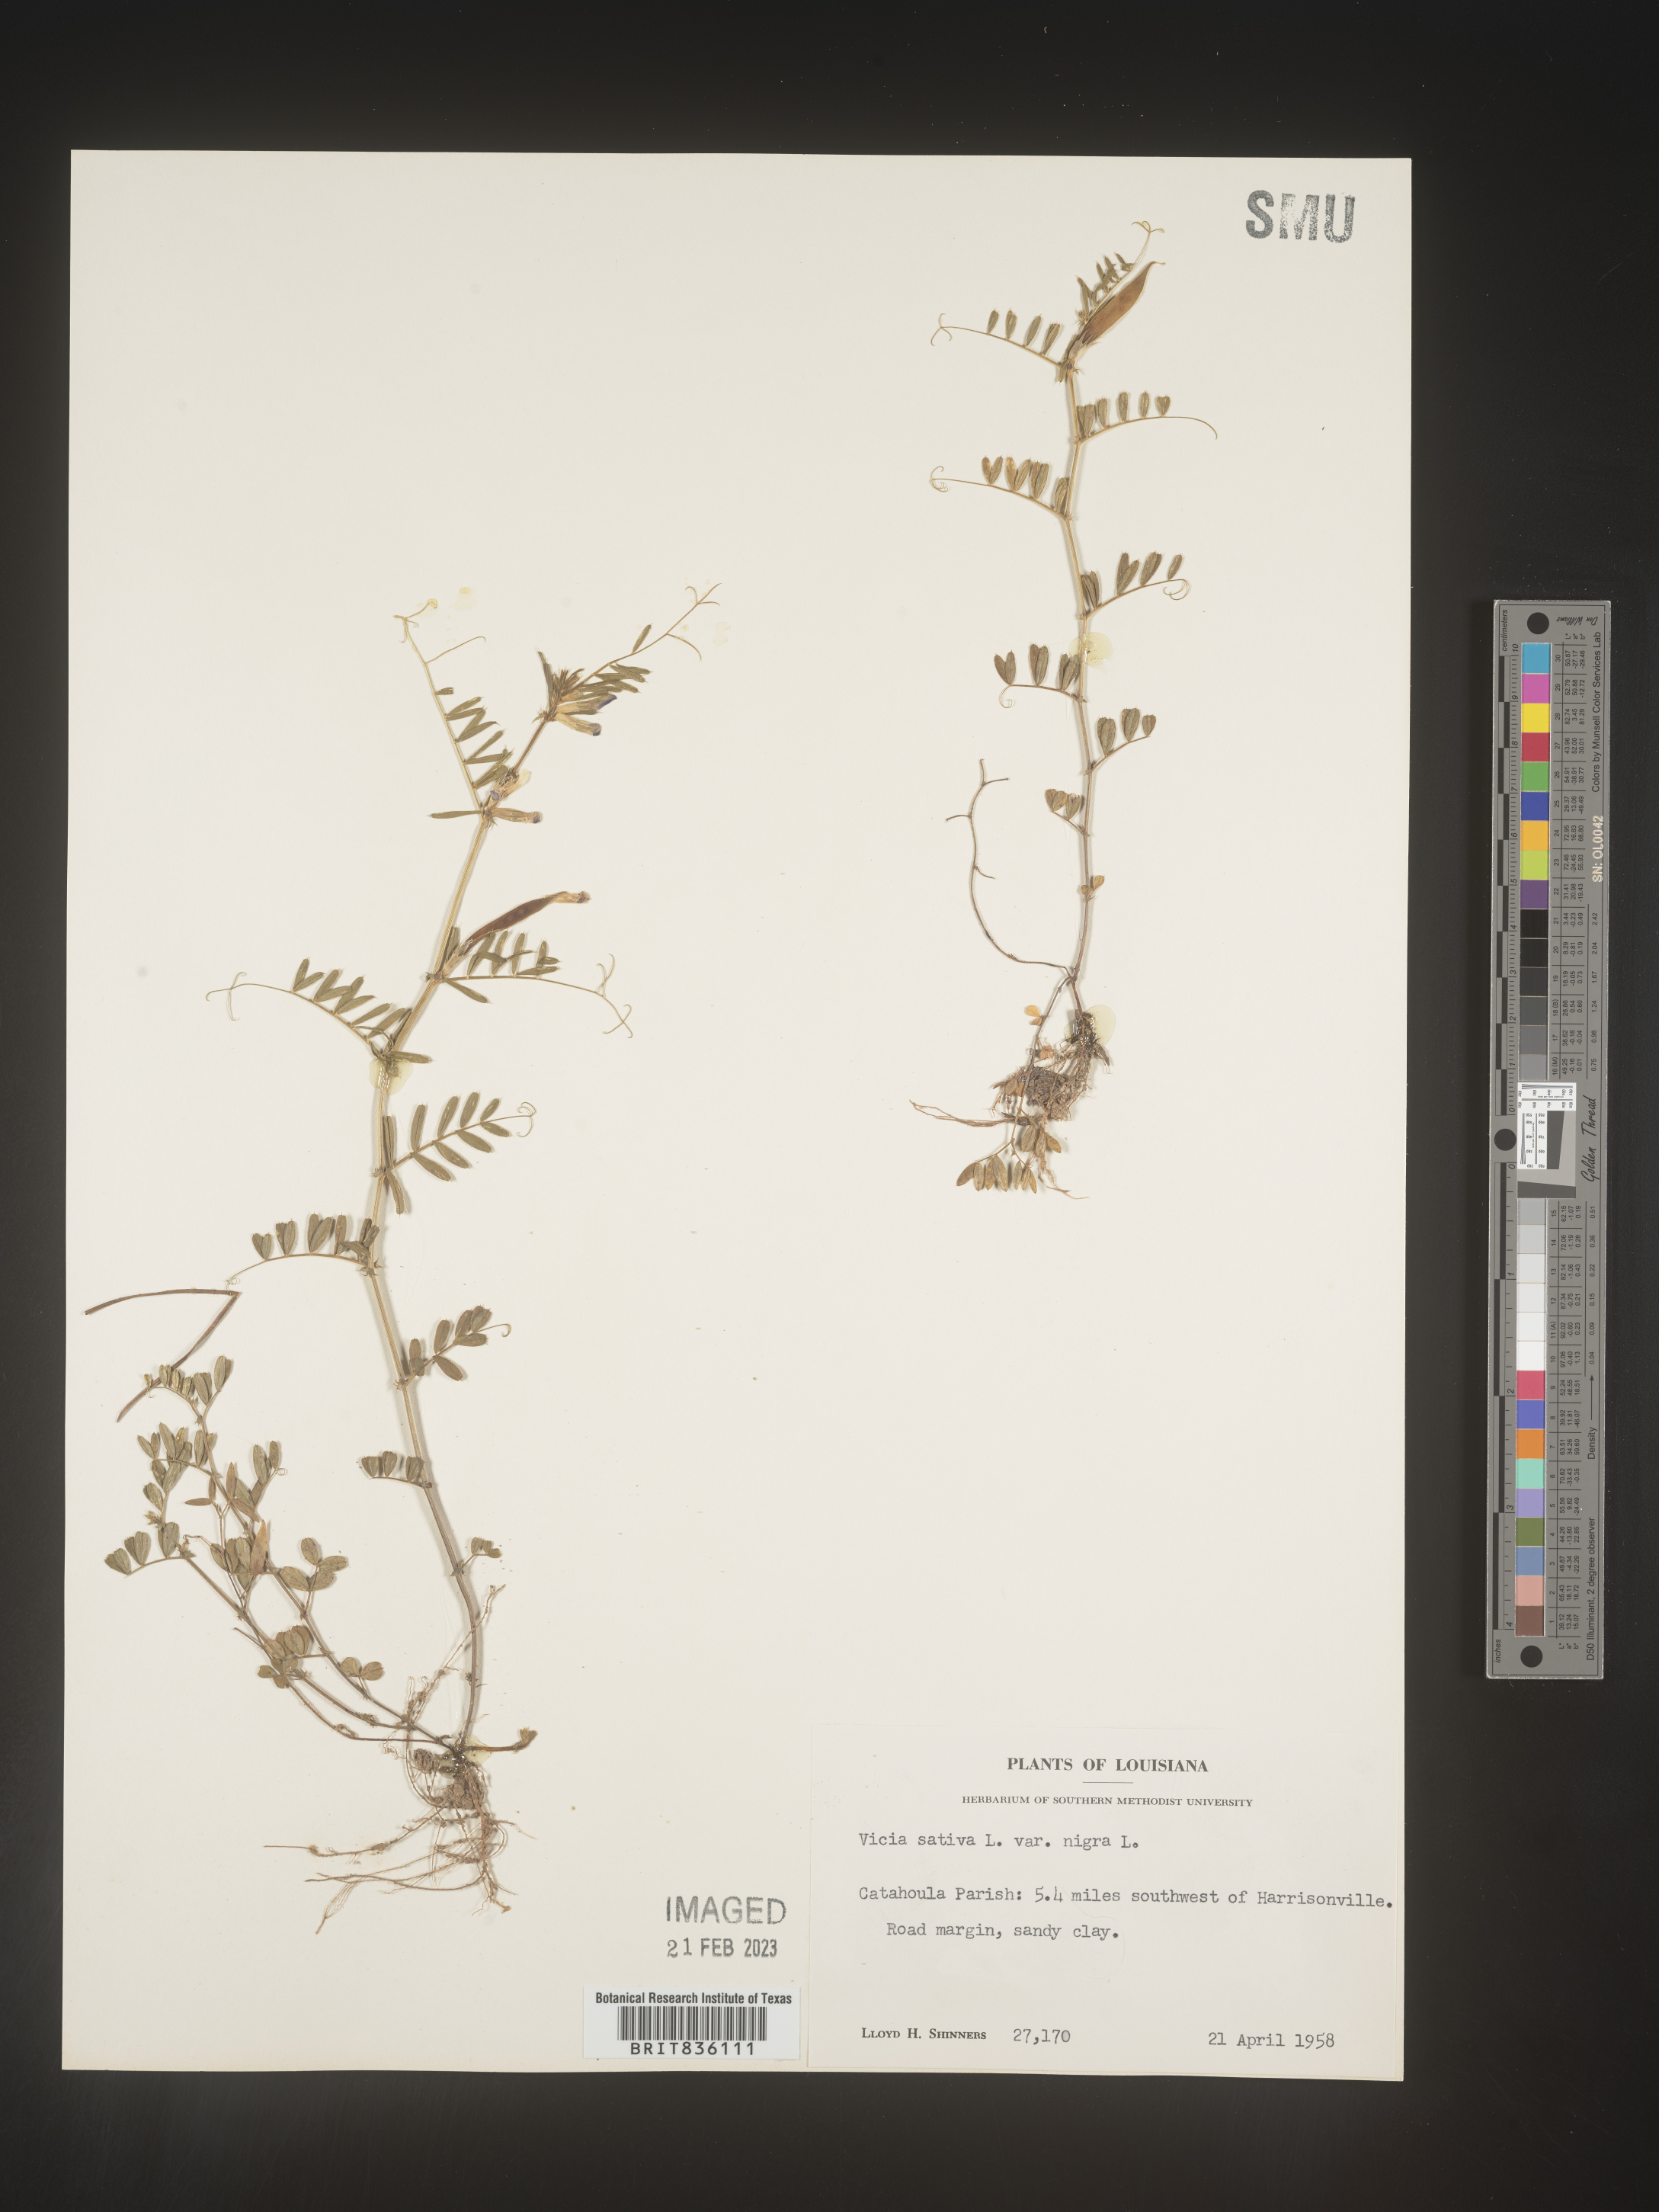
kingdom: Plantae
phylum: Tracheophyta
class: Magnoliopsida
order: Fabales
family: Fabaceae
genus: Vicia
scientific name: Vicia sativa
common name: Garden vetch
